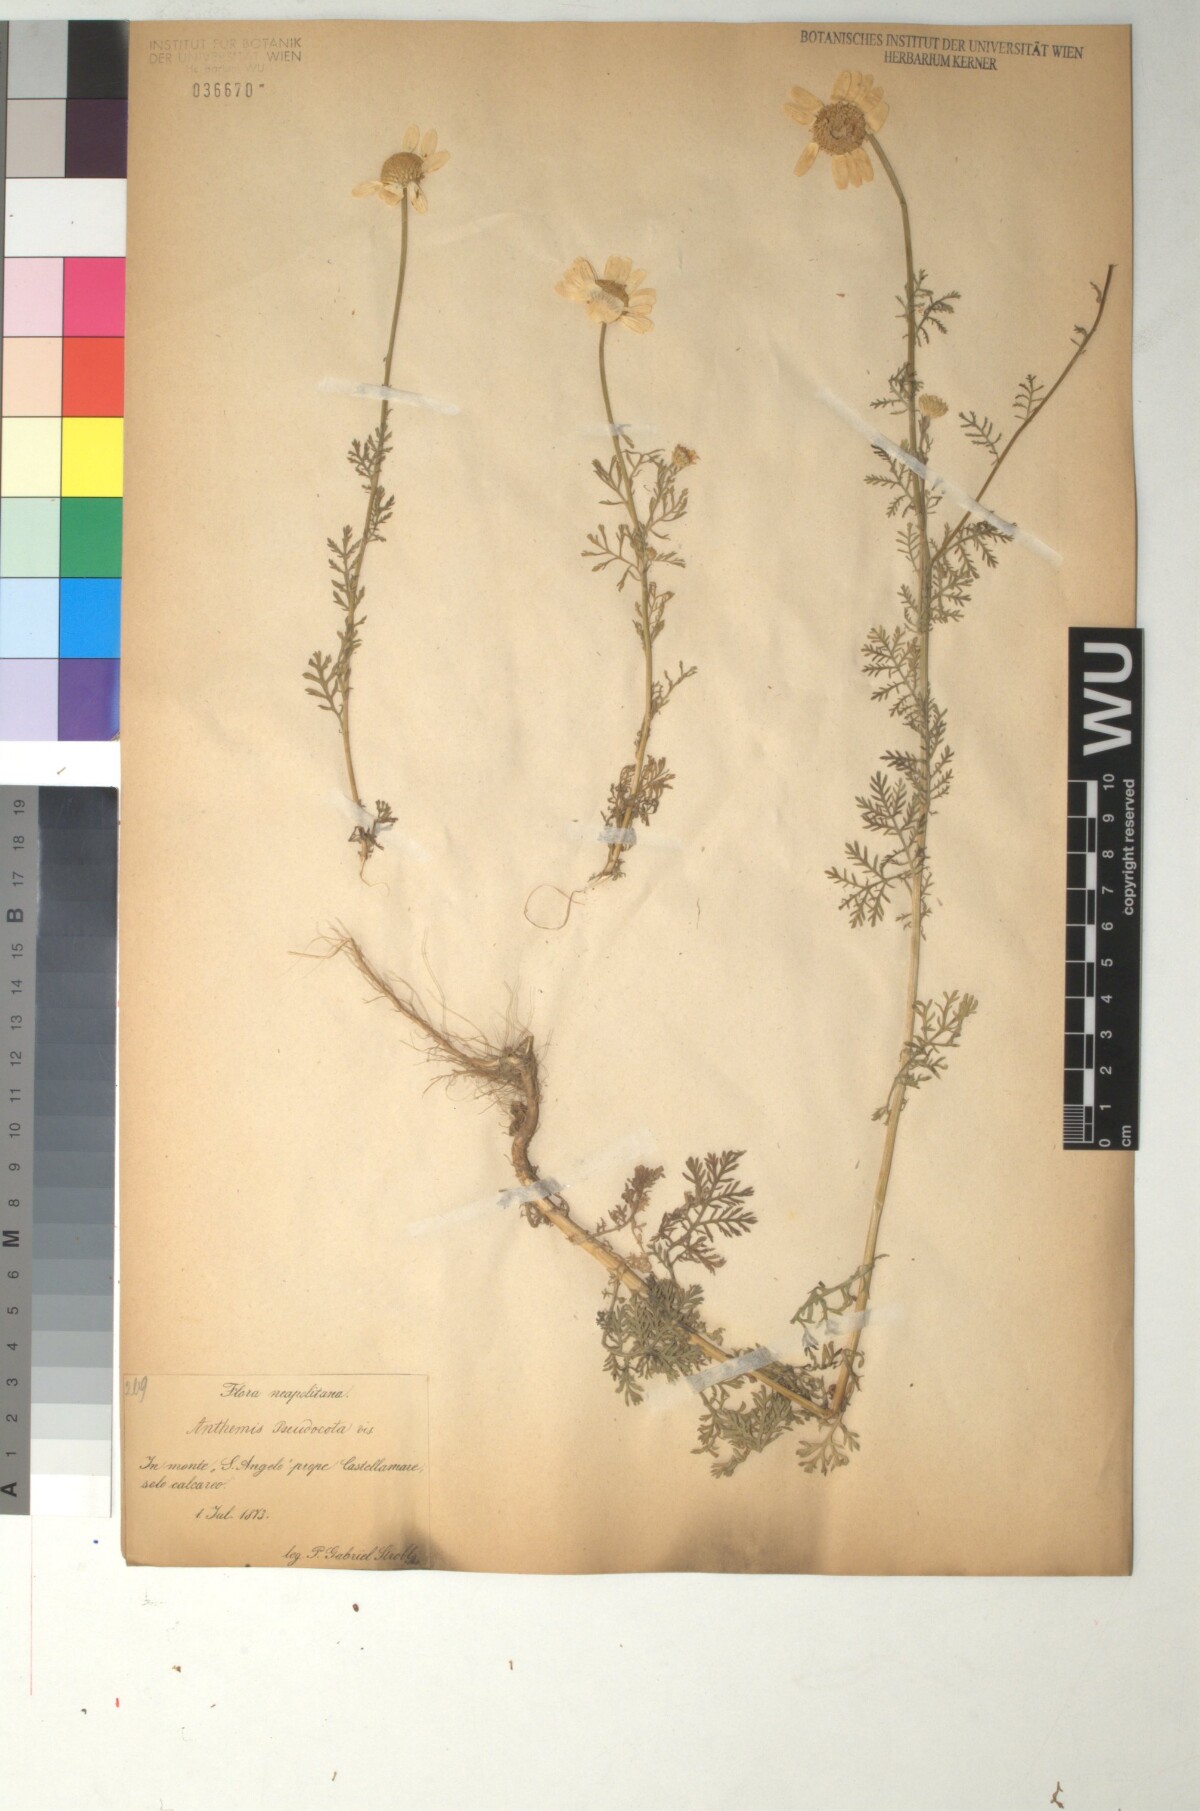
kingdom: Plantae
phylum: Tracheophyta
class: Magnoliopsida
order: Asterales
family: Asteraceae
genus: Cota
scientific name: Cota segetalis
